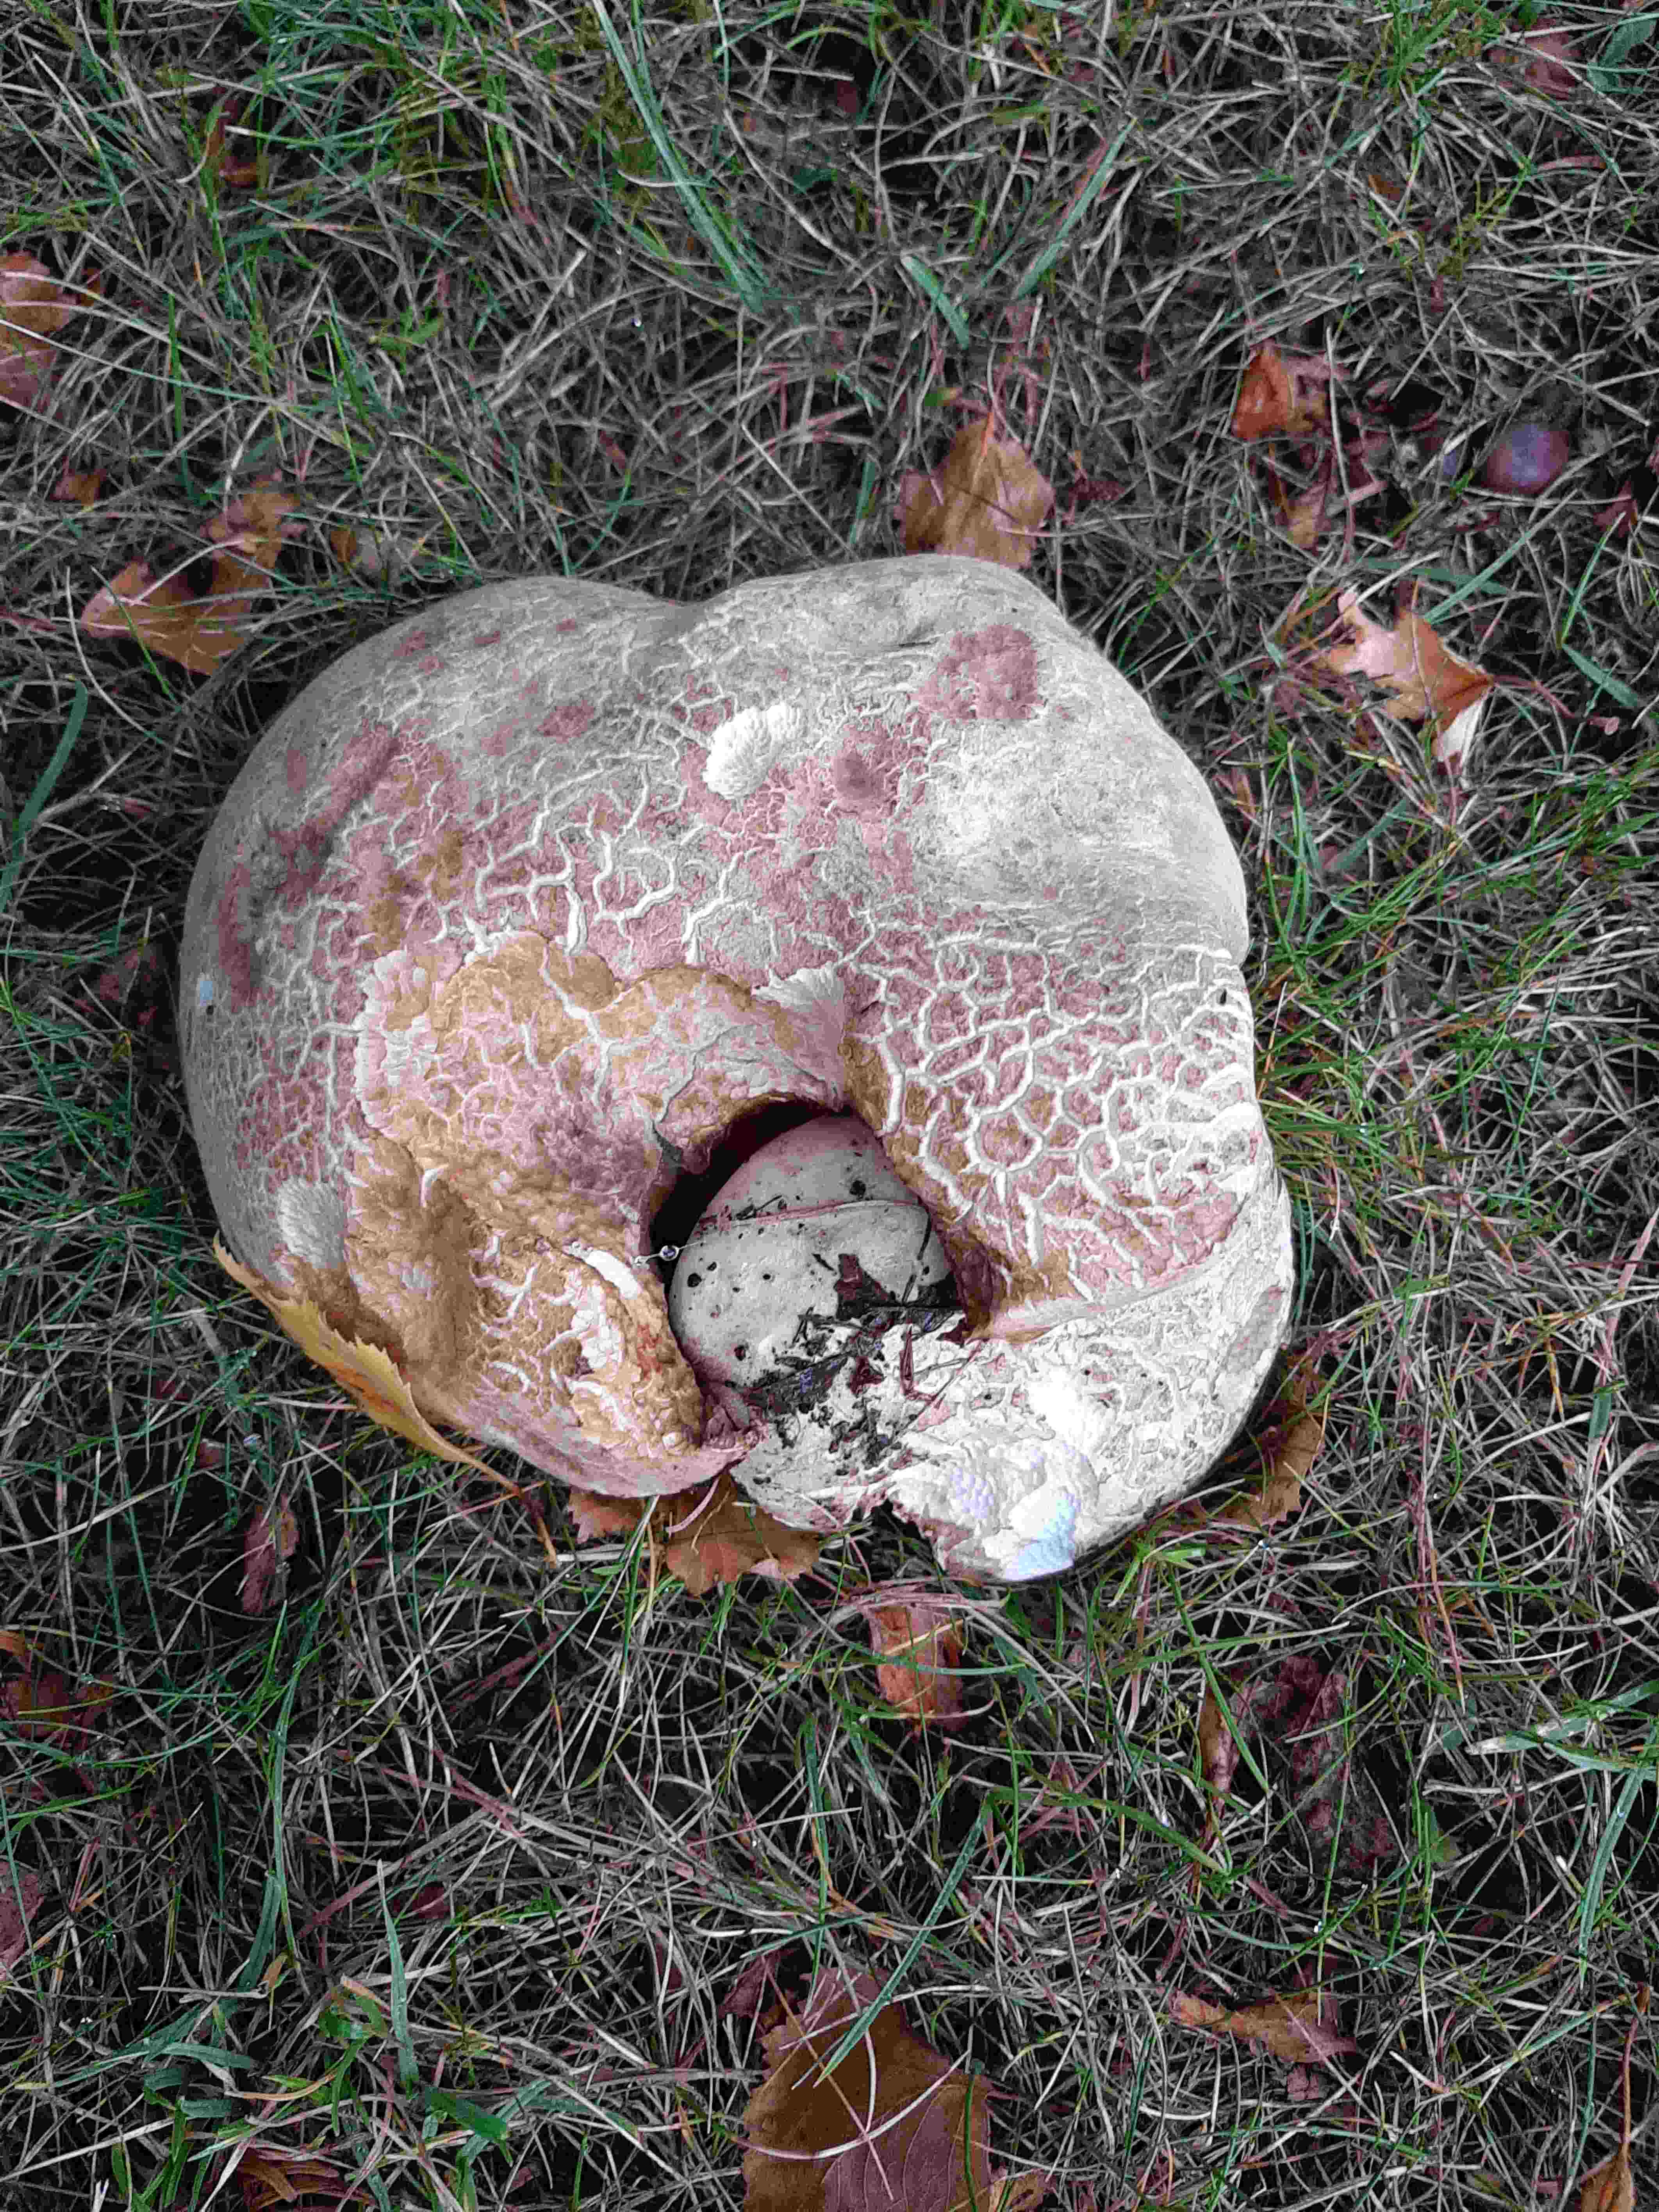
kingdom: Fungi
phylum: Basidiomycota
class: Agaricomycetes
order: Boletales
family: Boletaceae
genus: Caloboletus
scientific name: Caloboletus radicans
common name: rod-rørhat
